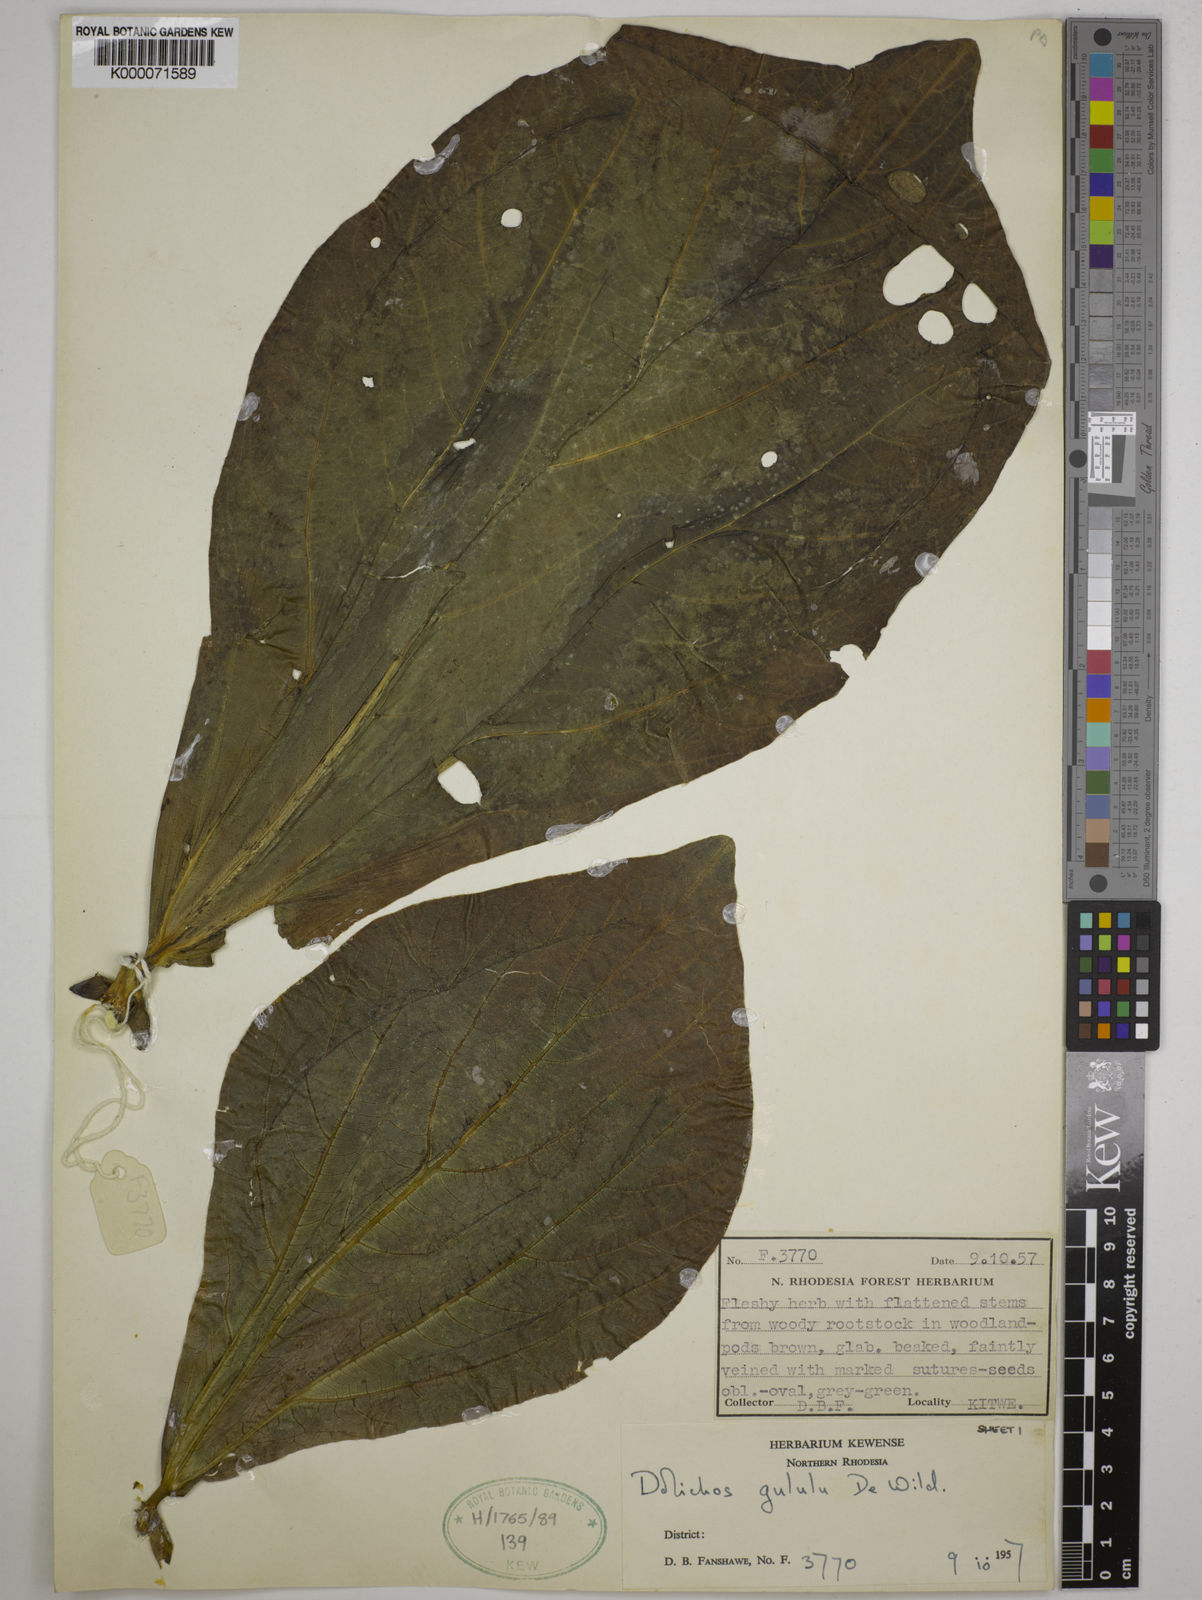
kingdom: Plantae
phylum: Tracheophyta
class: Magnoliopsida
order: Fabales
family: Fabaceae
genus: Dolichos
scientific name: Dolichos gululu
